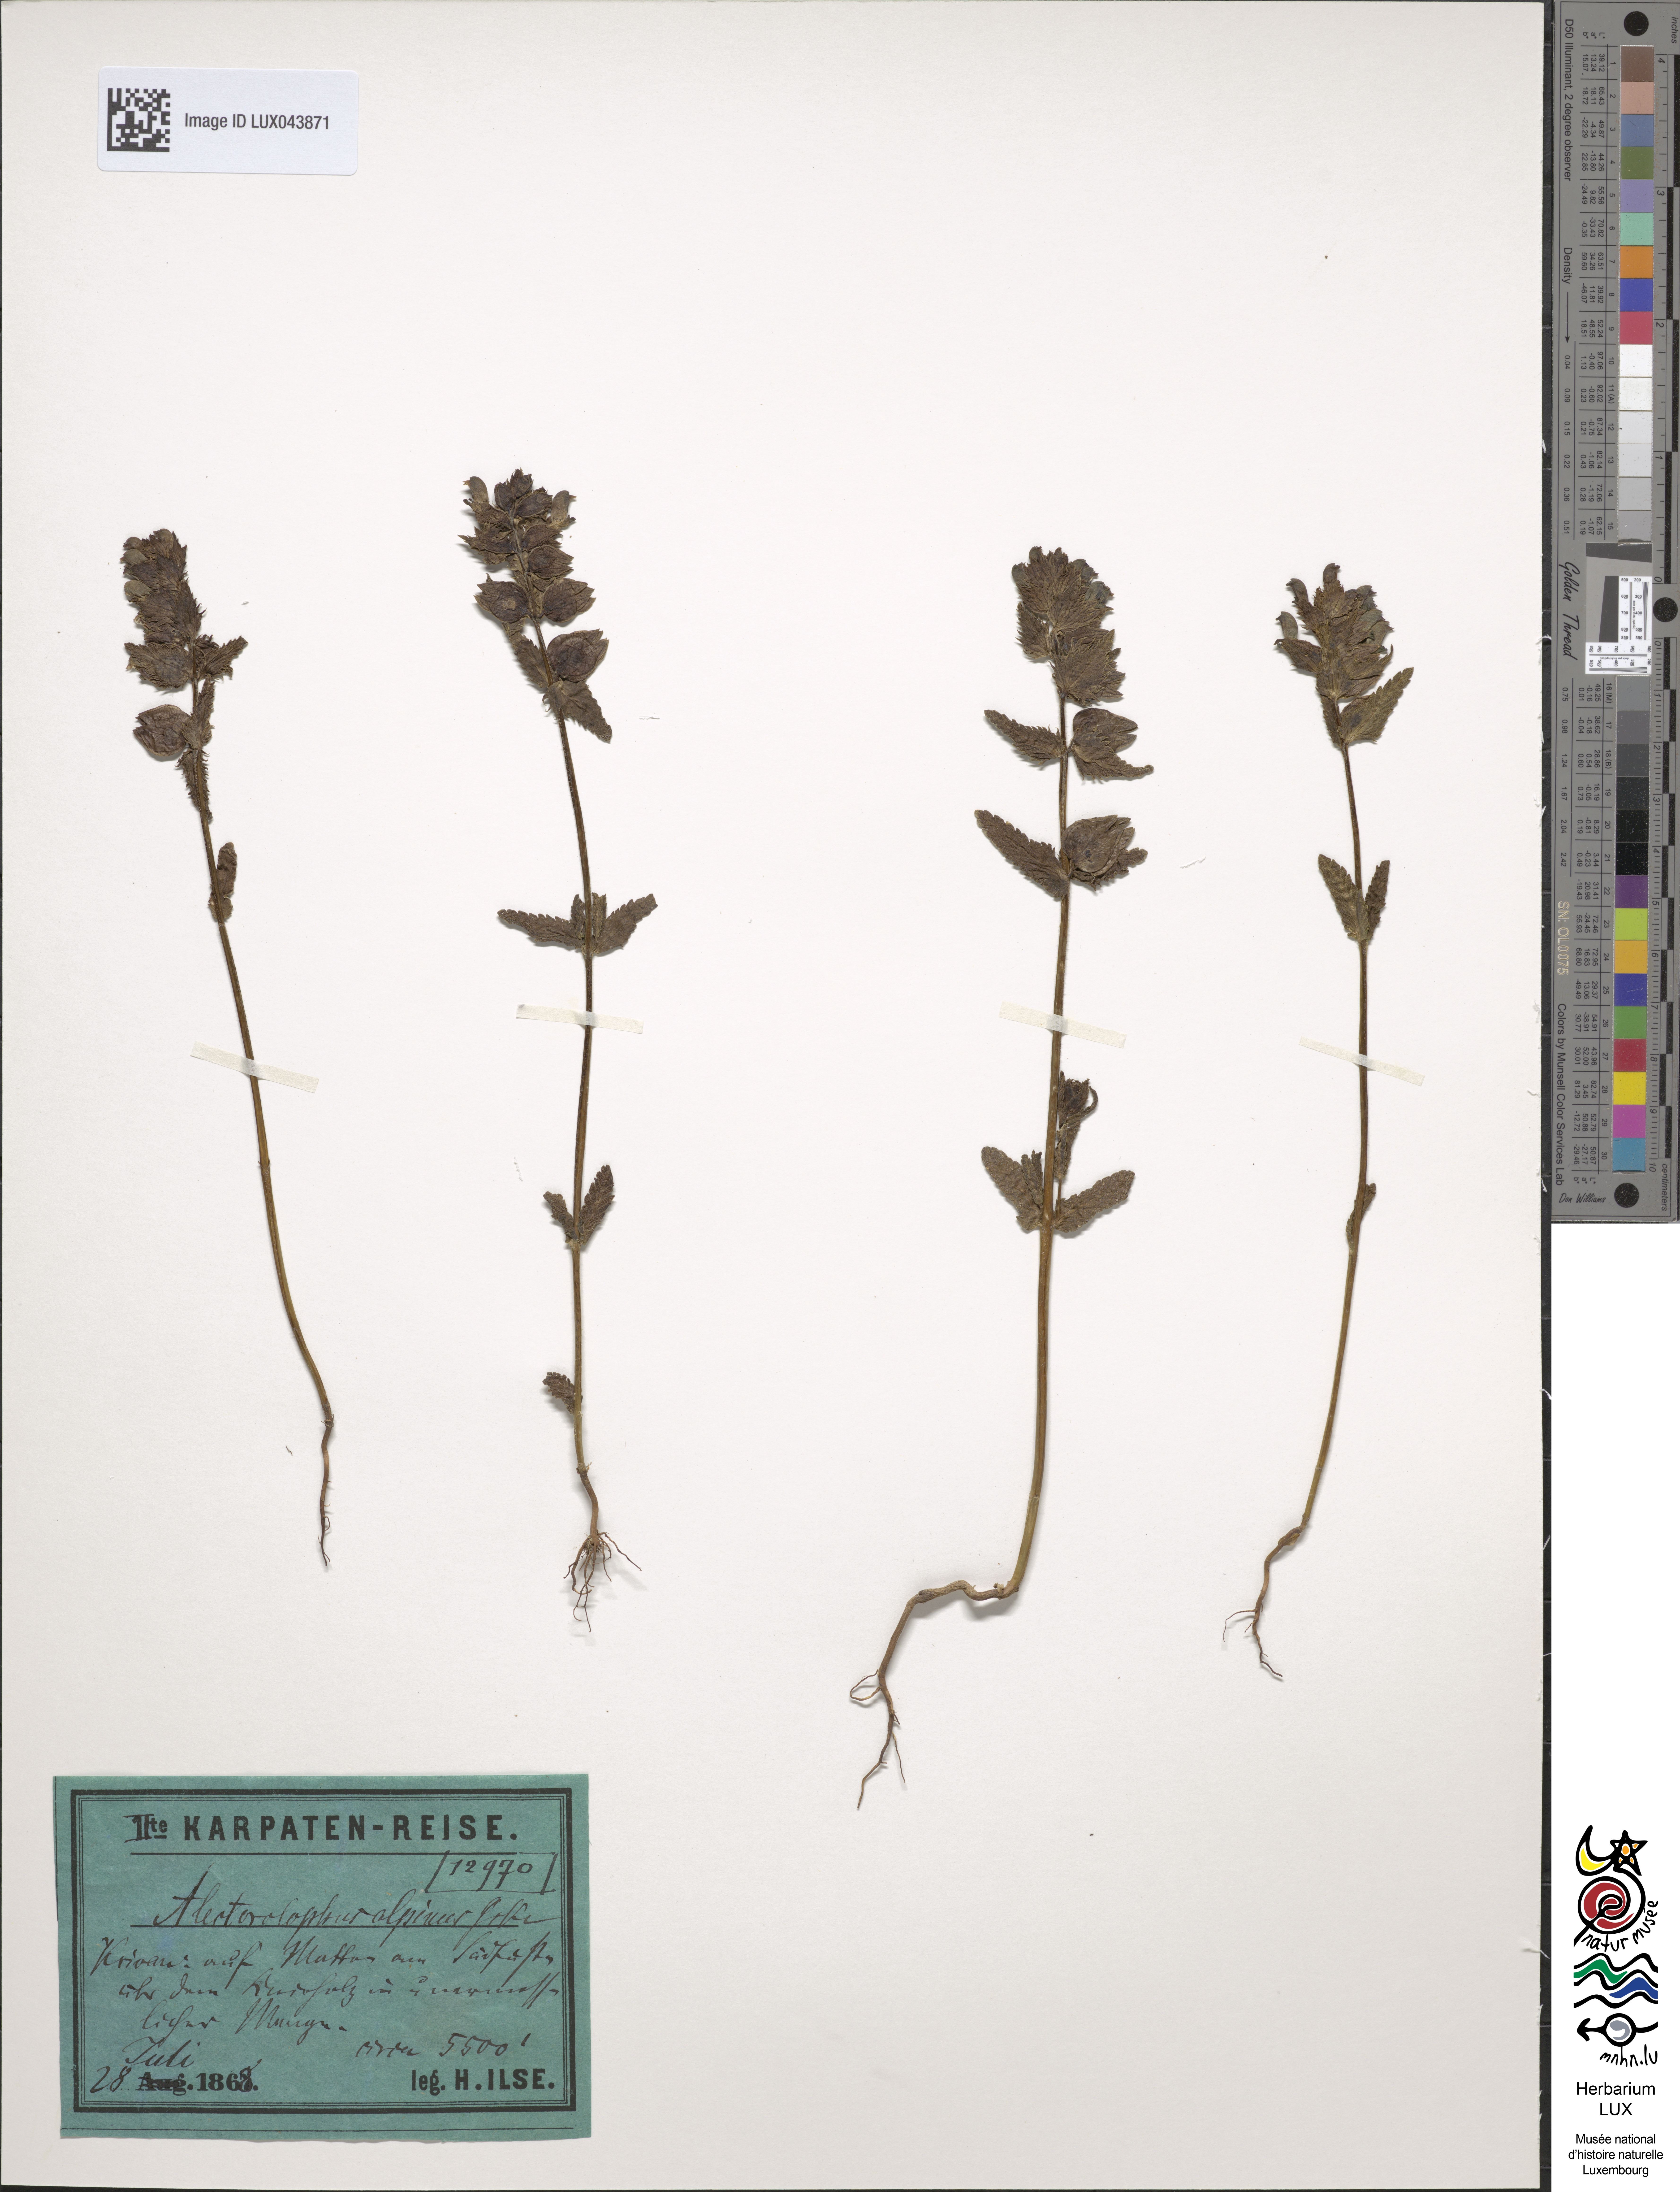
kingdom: Plantae
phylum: Tracheophyta
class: Magnoliopsida
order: Lamiales
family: Orobanchaceae
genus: Rhinanthus
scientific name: Rhinanthus riphaeus
